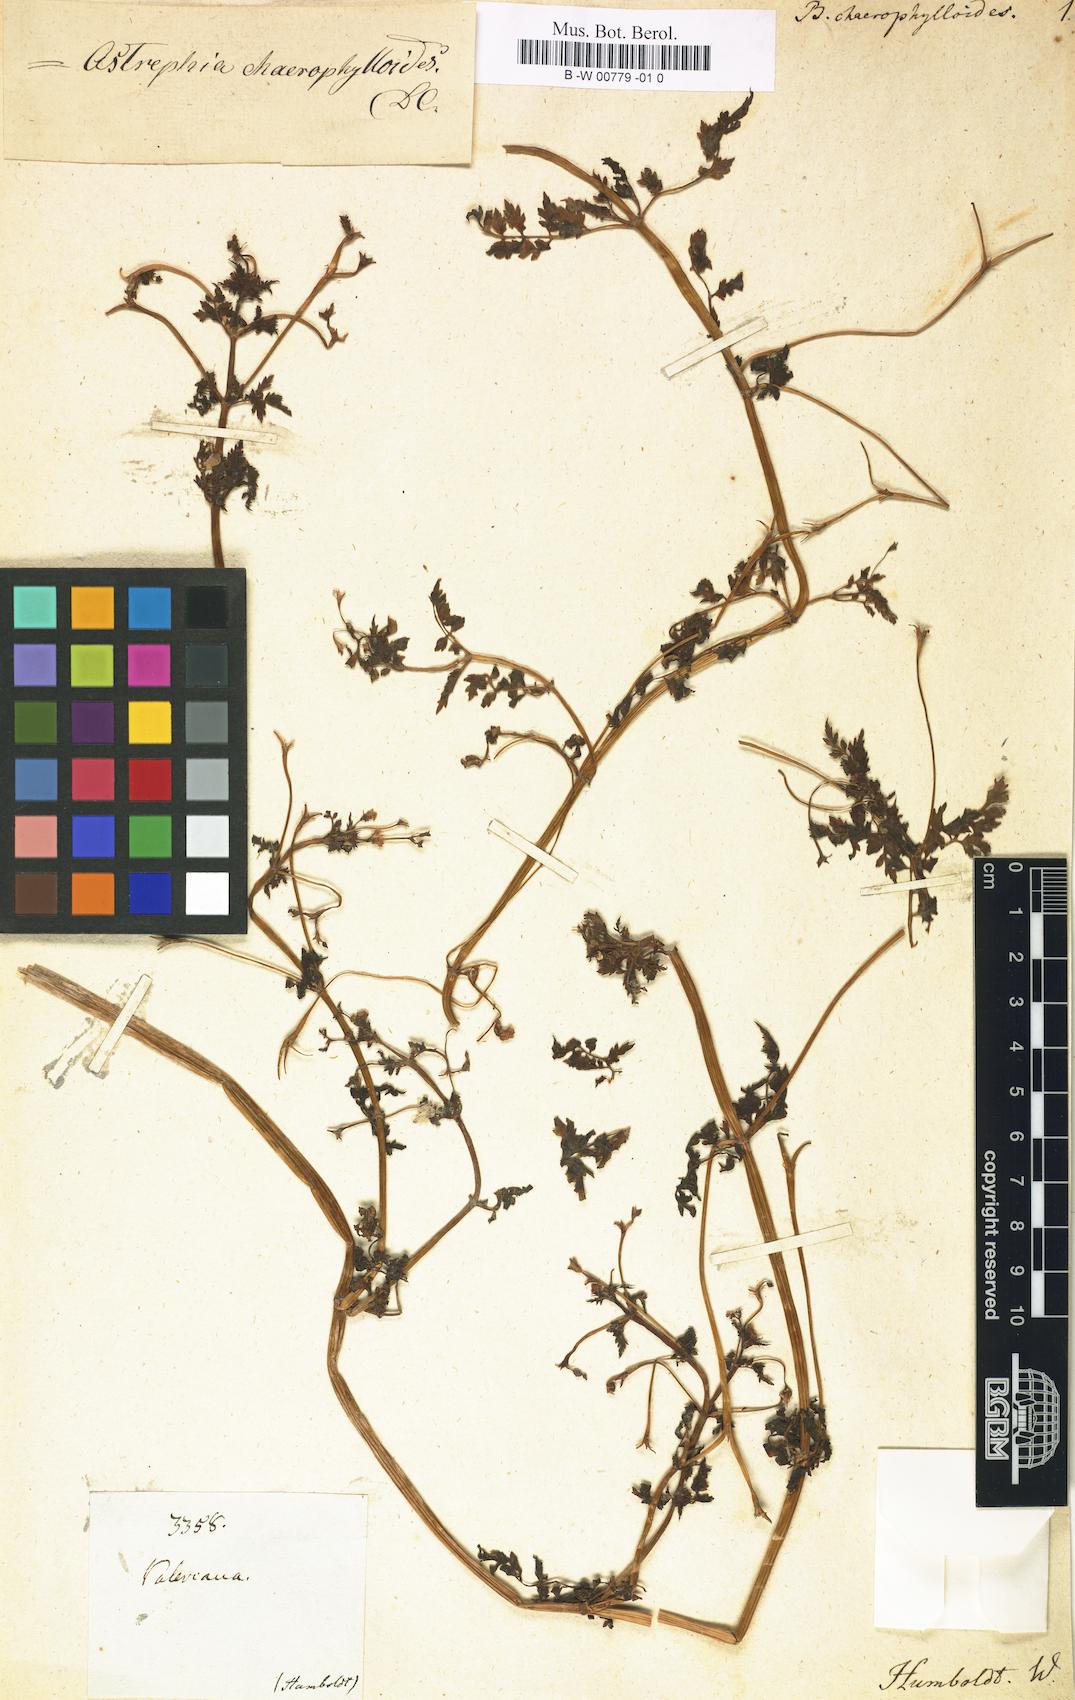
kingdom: Plantae
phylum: Tracheophyta
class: Magnoliopsida
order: Dipsacales
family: Caprifoliaceae
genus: Valeriana
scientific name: Valeriana chaerophylloides
